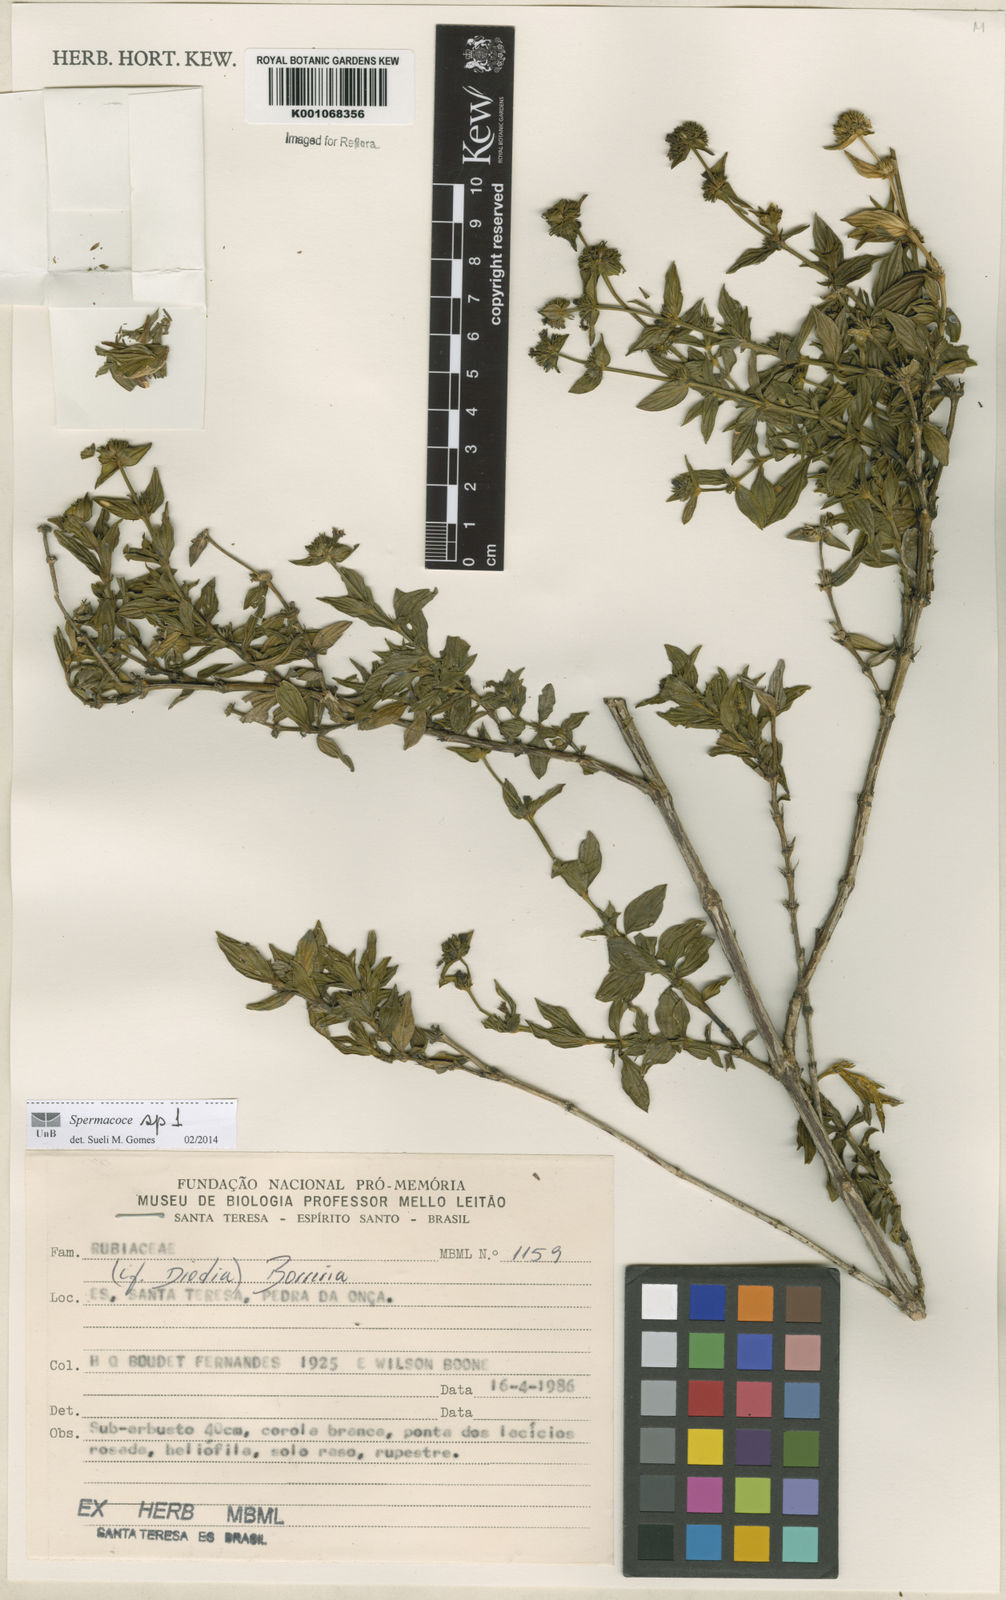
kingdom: Plantae
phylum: Tracheophyta
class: Magnoliopsida
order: Gentianales
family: Rubiaceae
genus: Spermacoce
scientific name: Spermacoce
